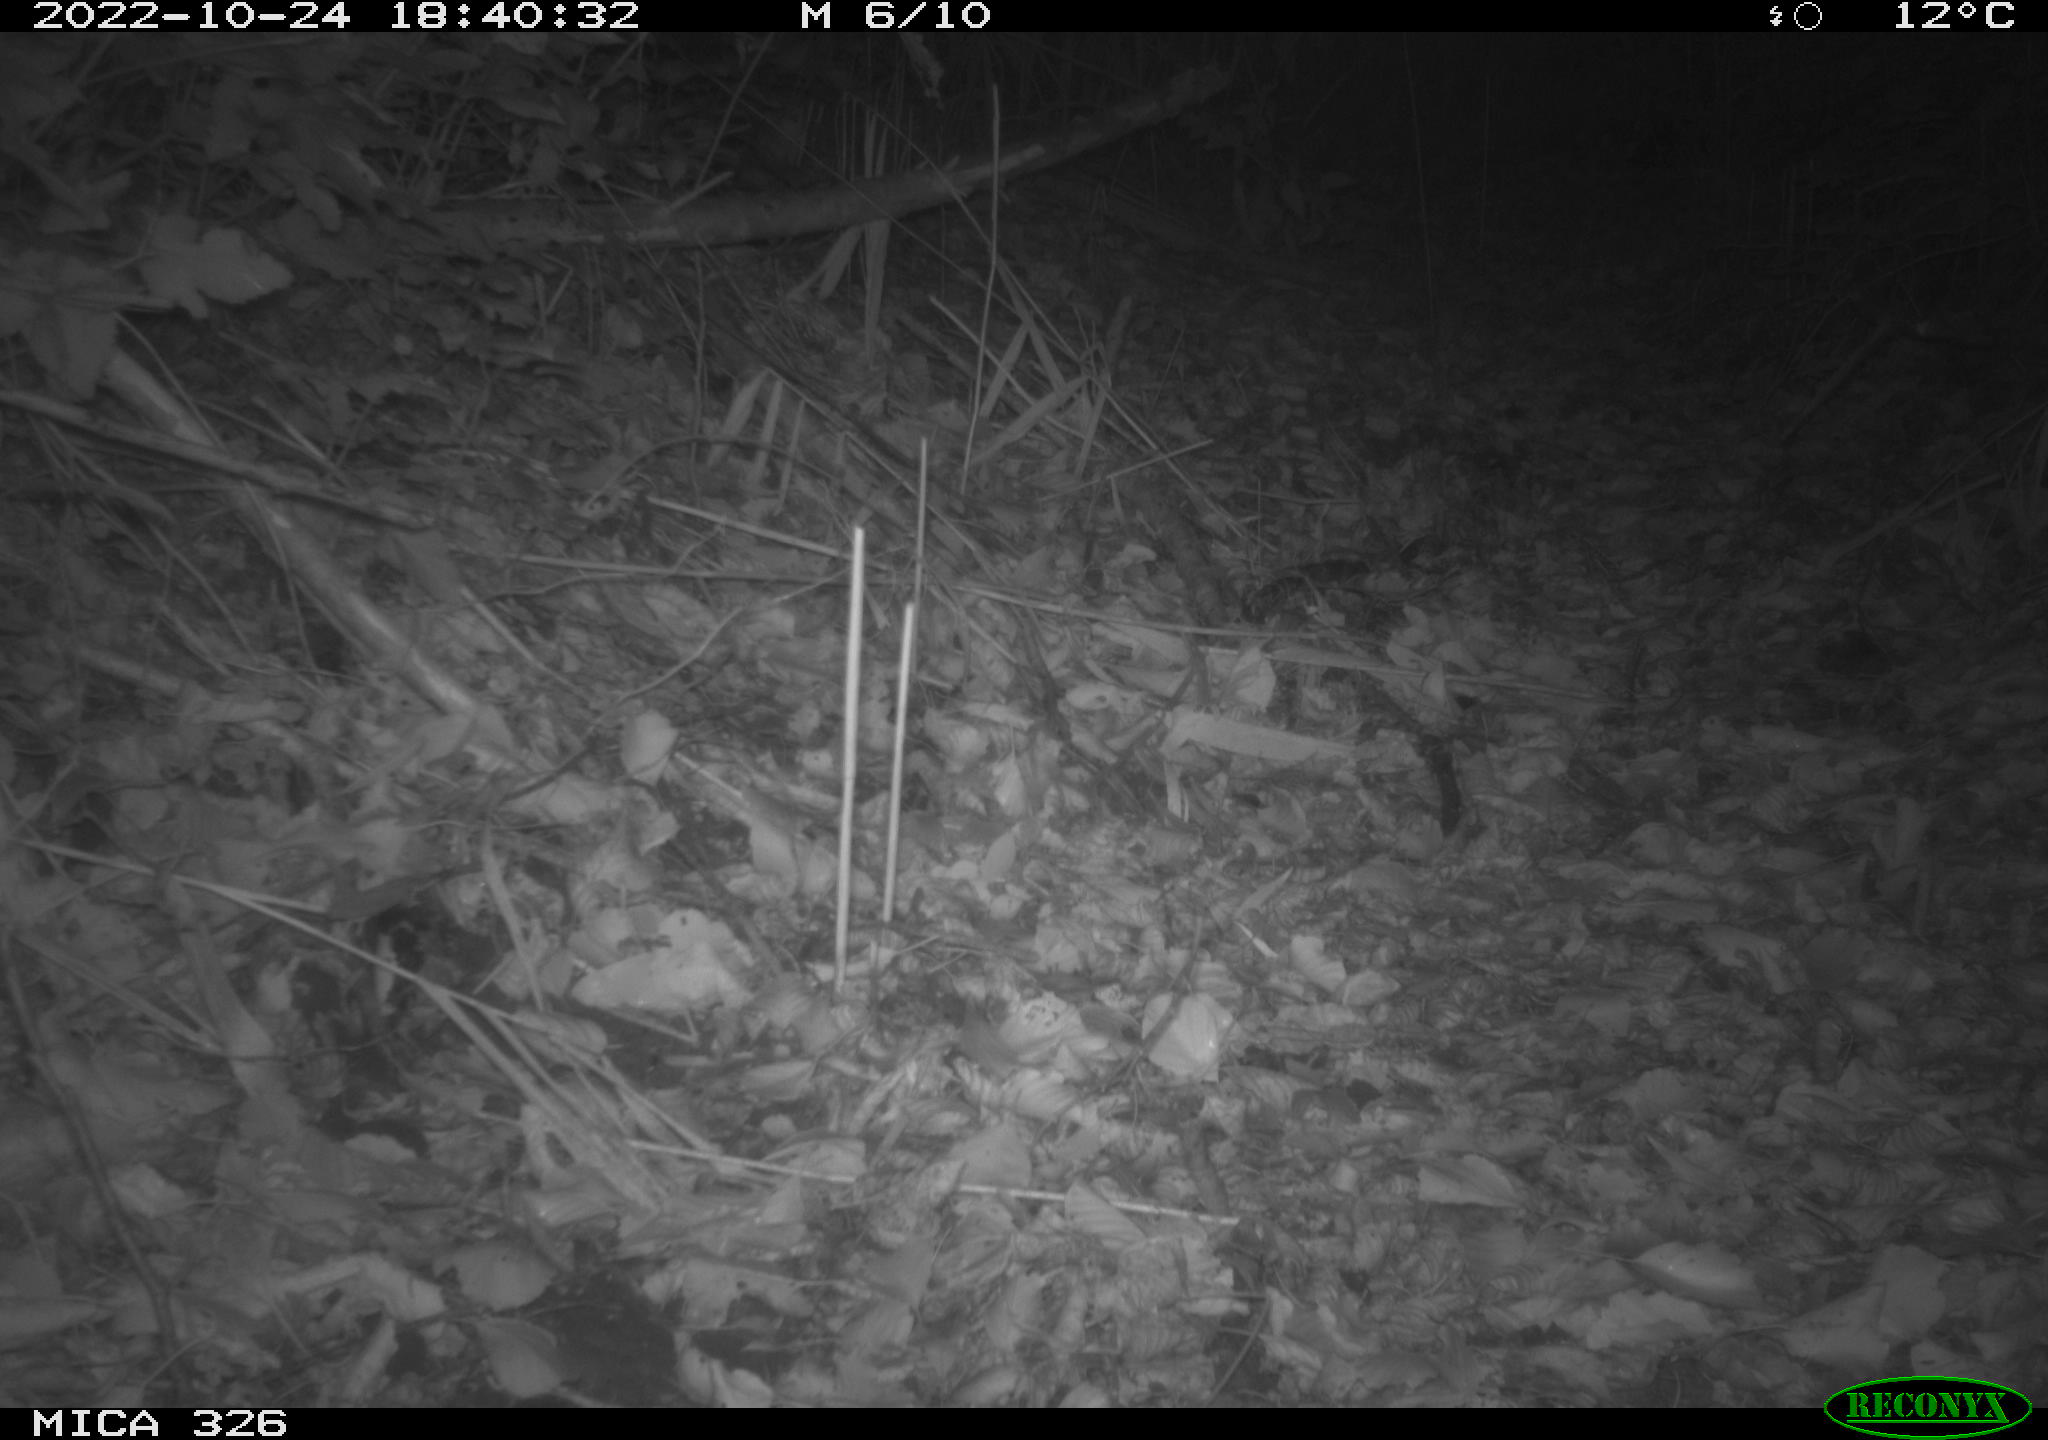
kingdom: Animalia
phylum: Chordata
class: Mammalia
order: Lagomorpha
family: Leporidae
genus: Lepus
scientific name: Lepus europaeus
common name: European hare
